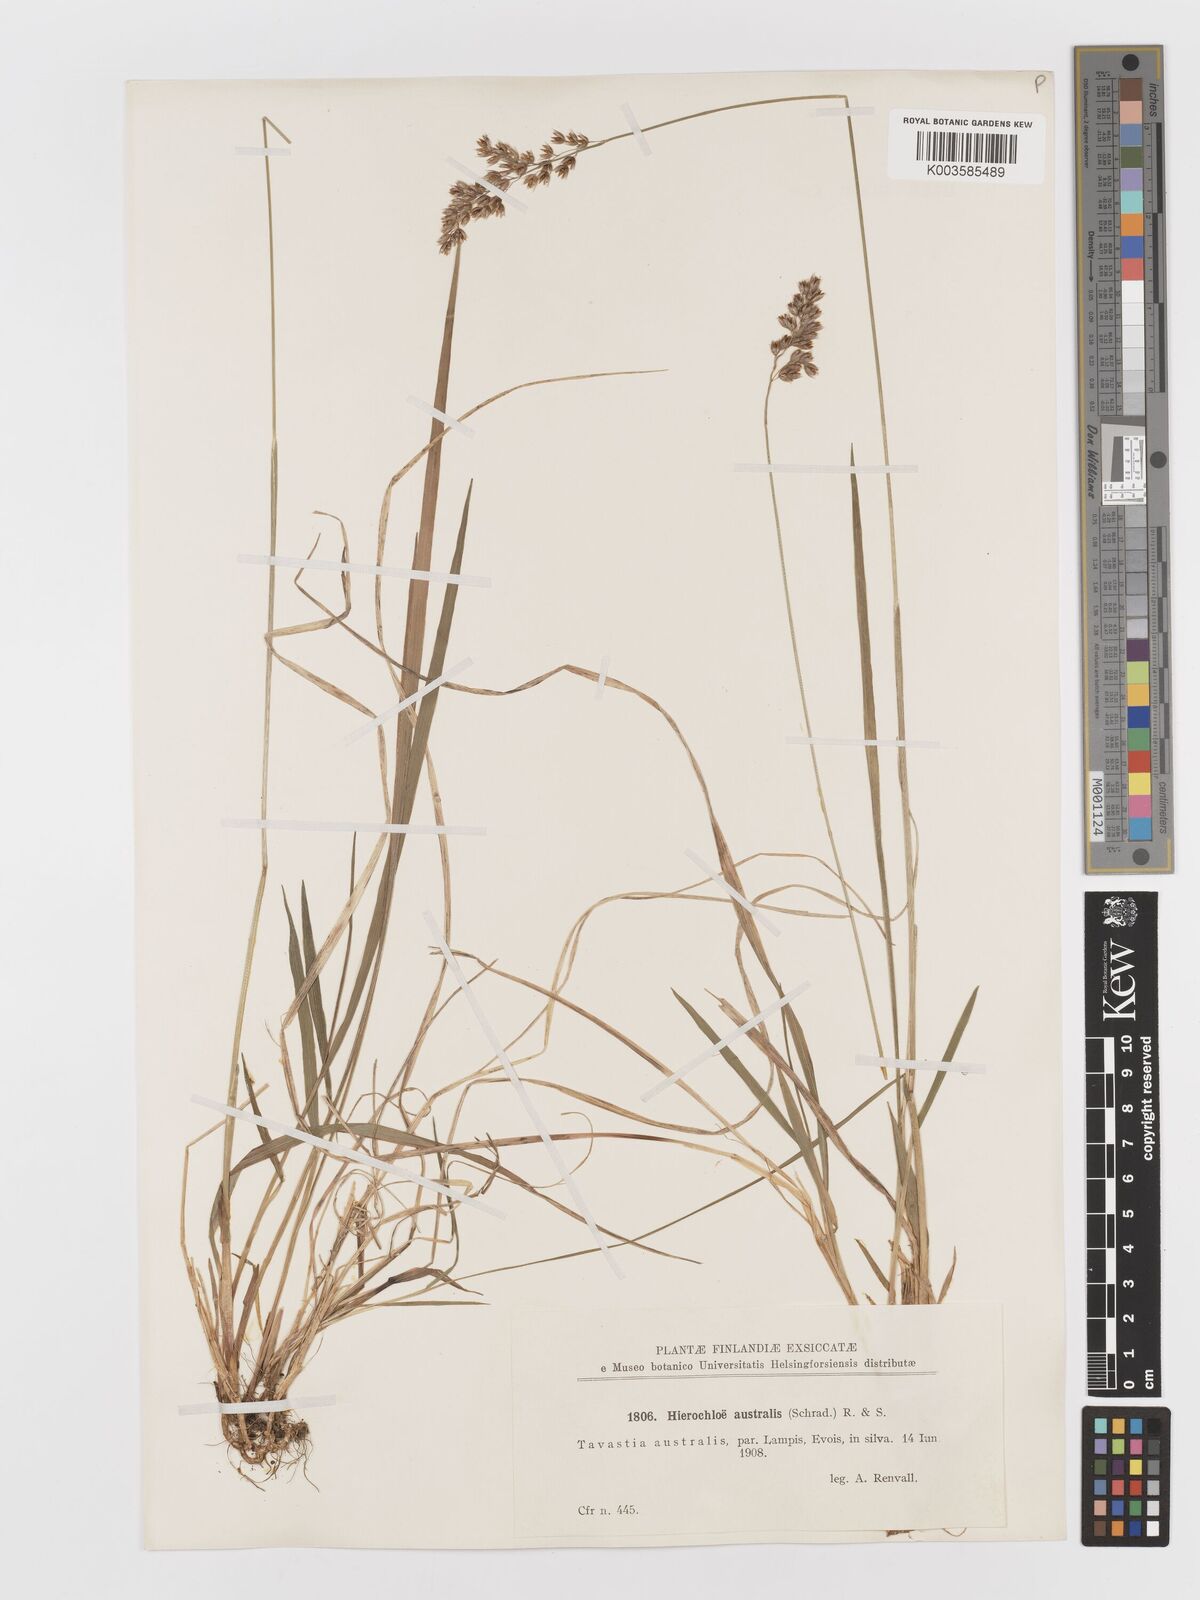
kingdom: Plantae
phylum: Tracheophyta
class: Liliopsida
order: Poales
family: Poaceae
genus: Anthoxanthum
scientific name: Anthoxanthum australe
